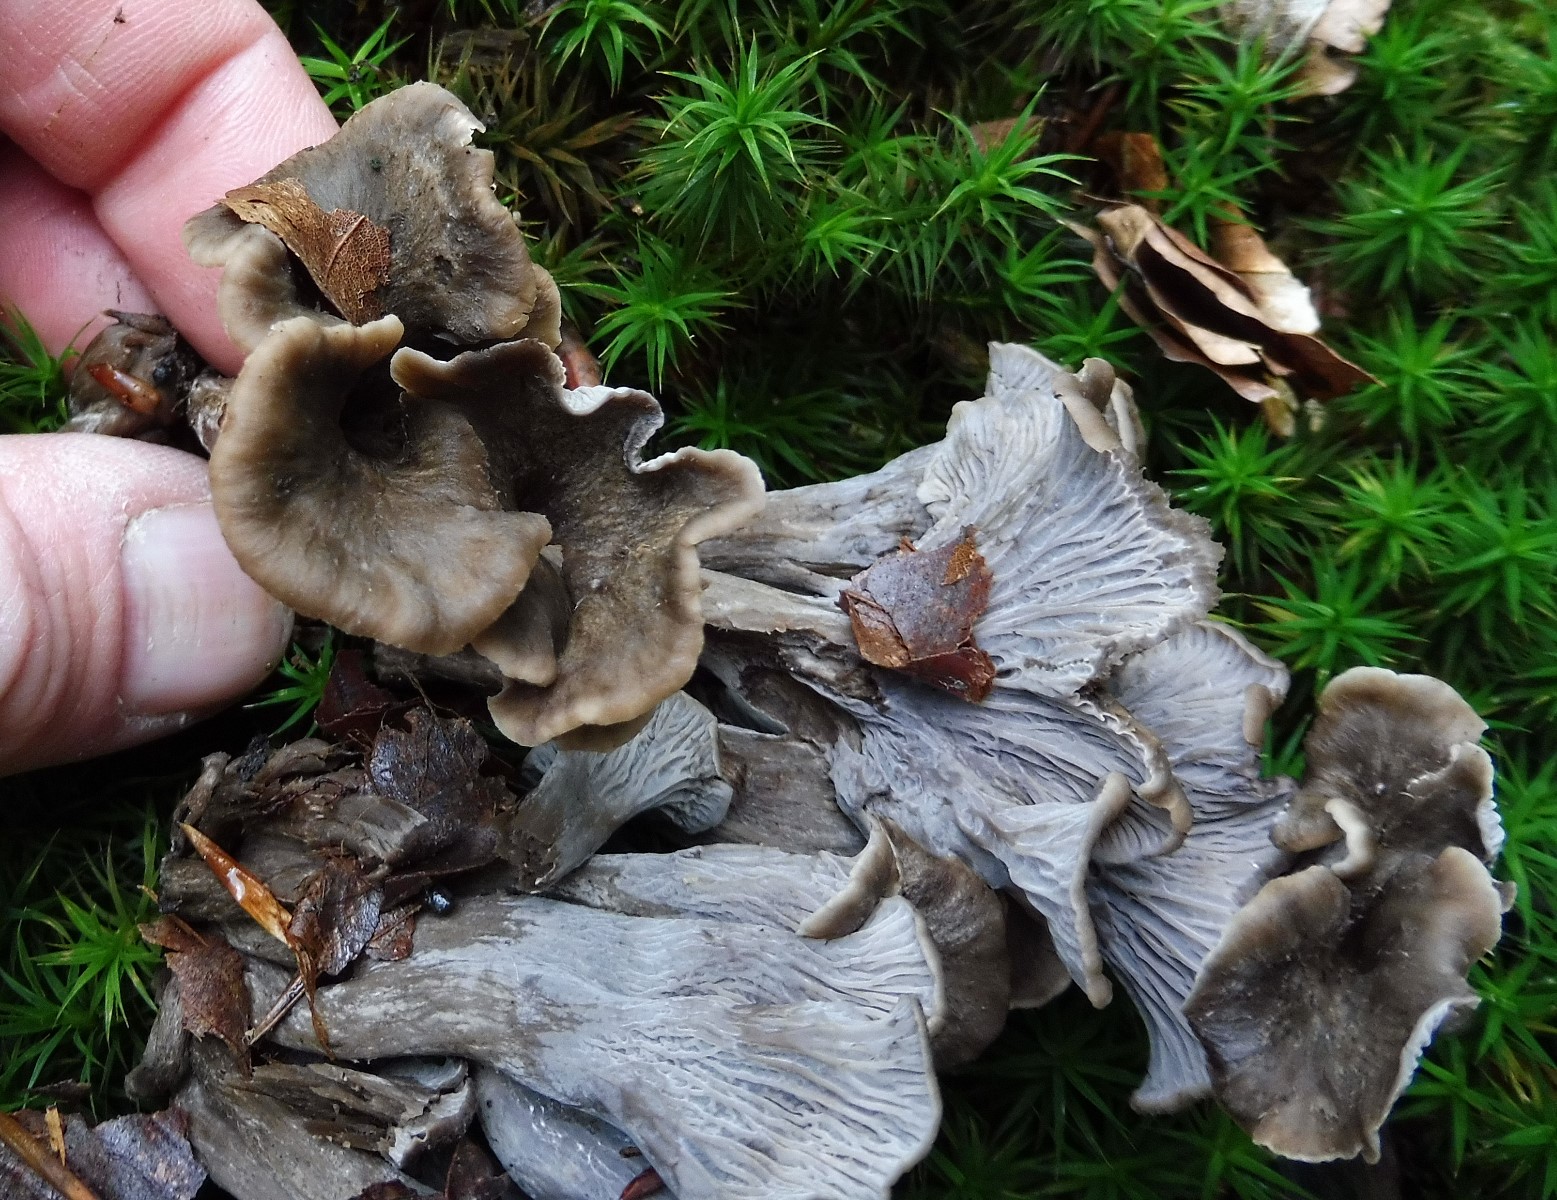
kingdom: Fungi
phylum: Basidiomycota
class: Agaricomycetes
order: Cantharellales
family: Hydnaceae
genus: Cantharellus
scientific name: Cantharellus cinereus
